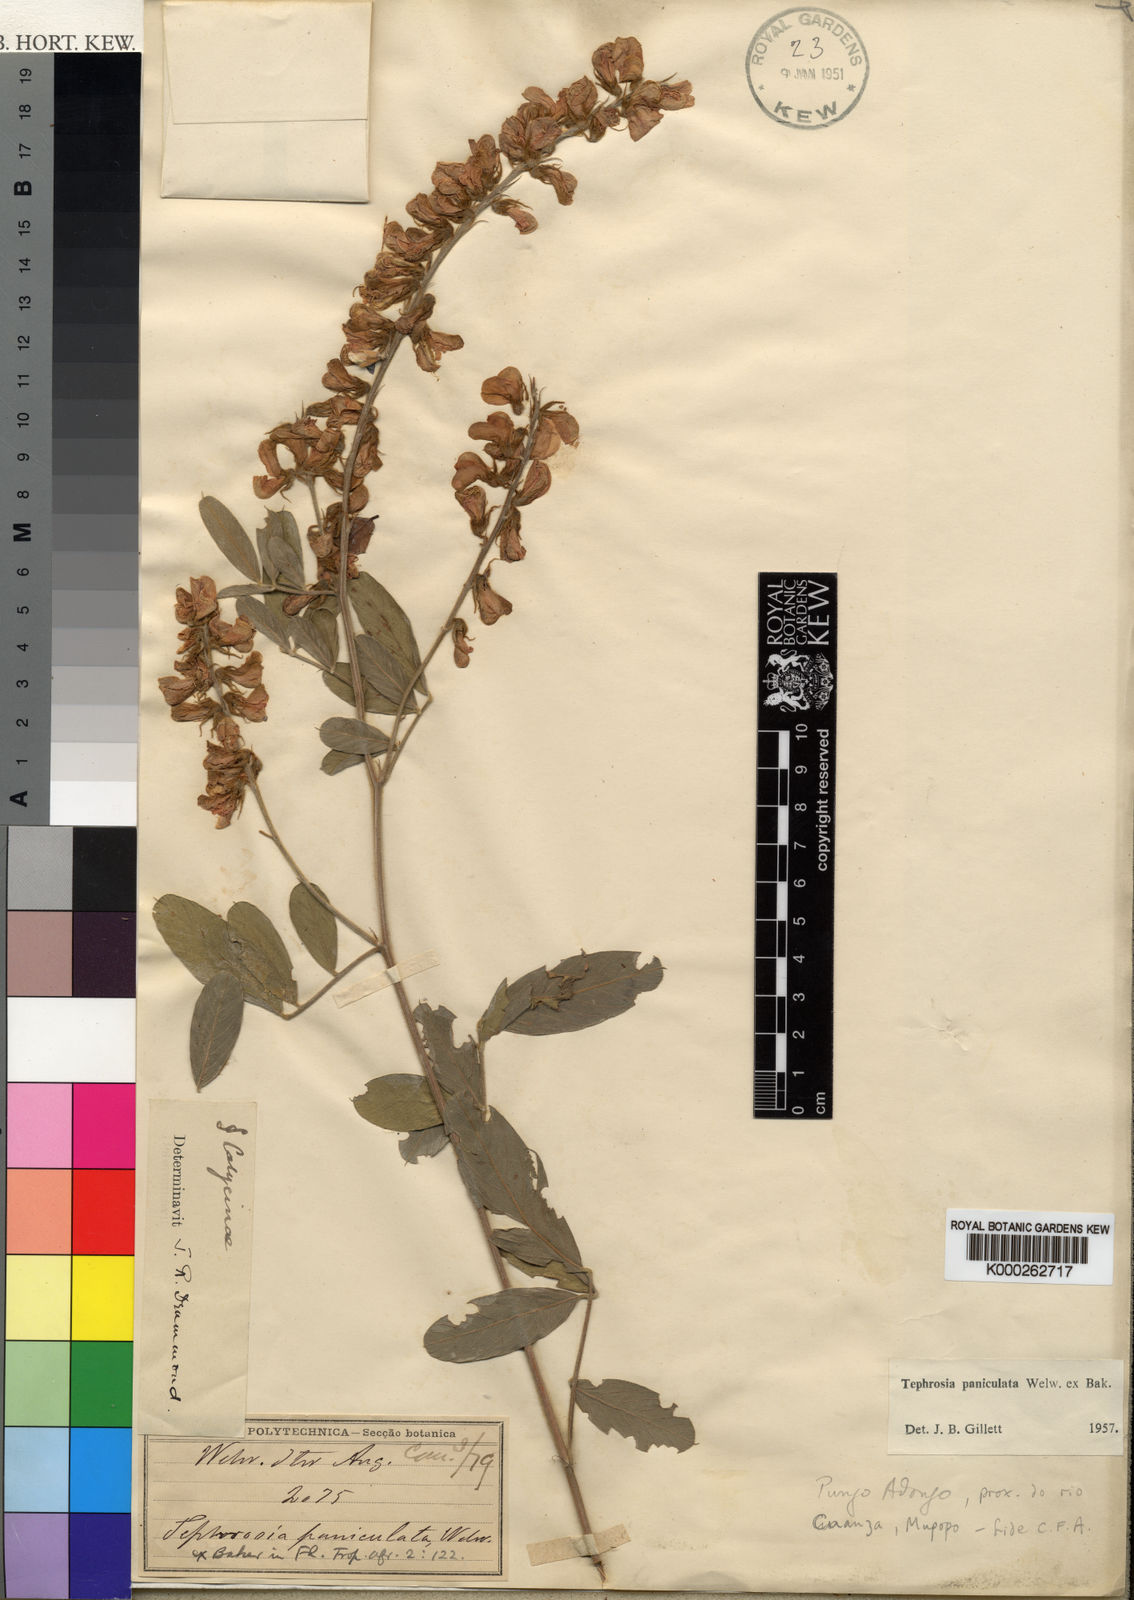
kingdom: Plantae
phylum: Tracheophyta
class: Magnoliopsida
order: Fabales
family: Fabaceae
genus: Tephrosia
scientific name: Tephrosia paniculata
